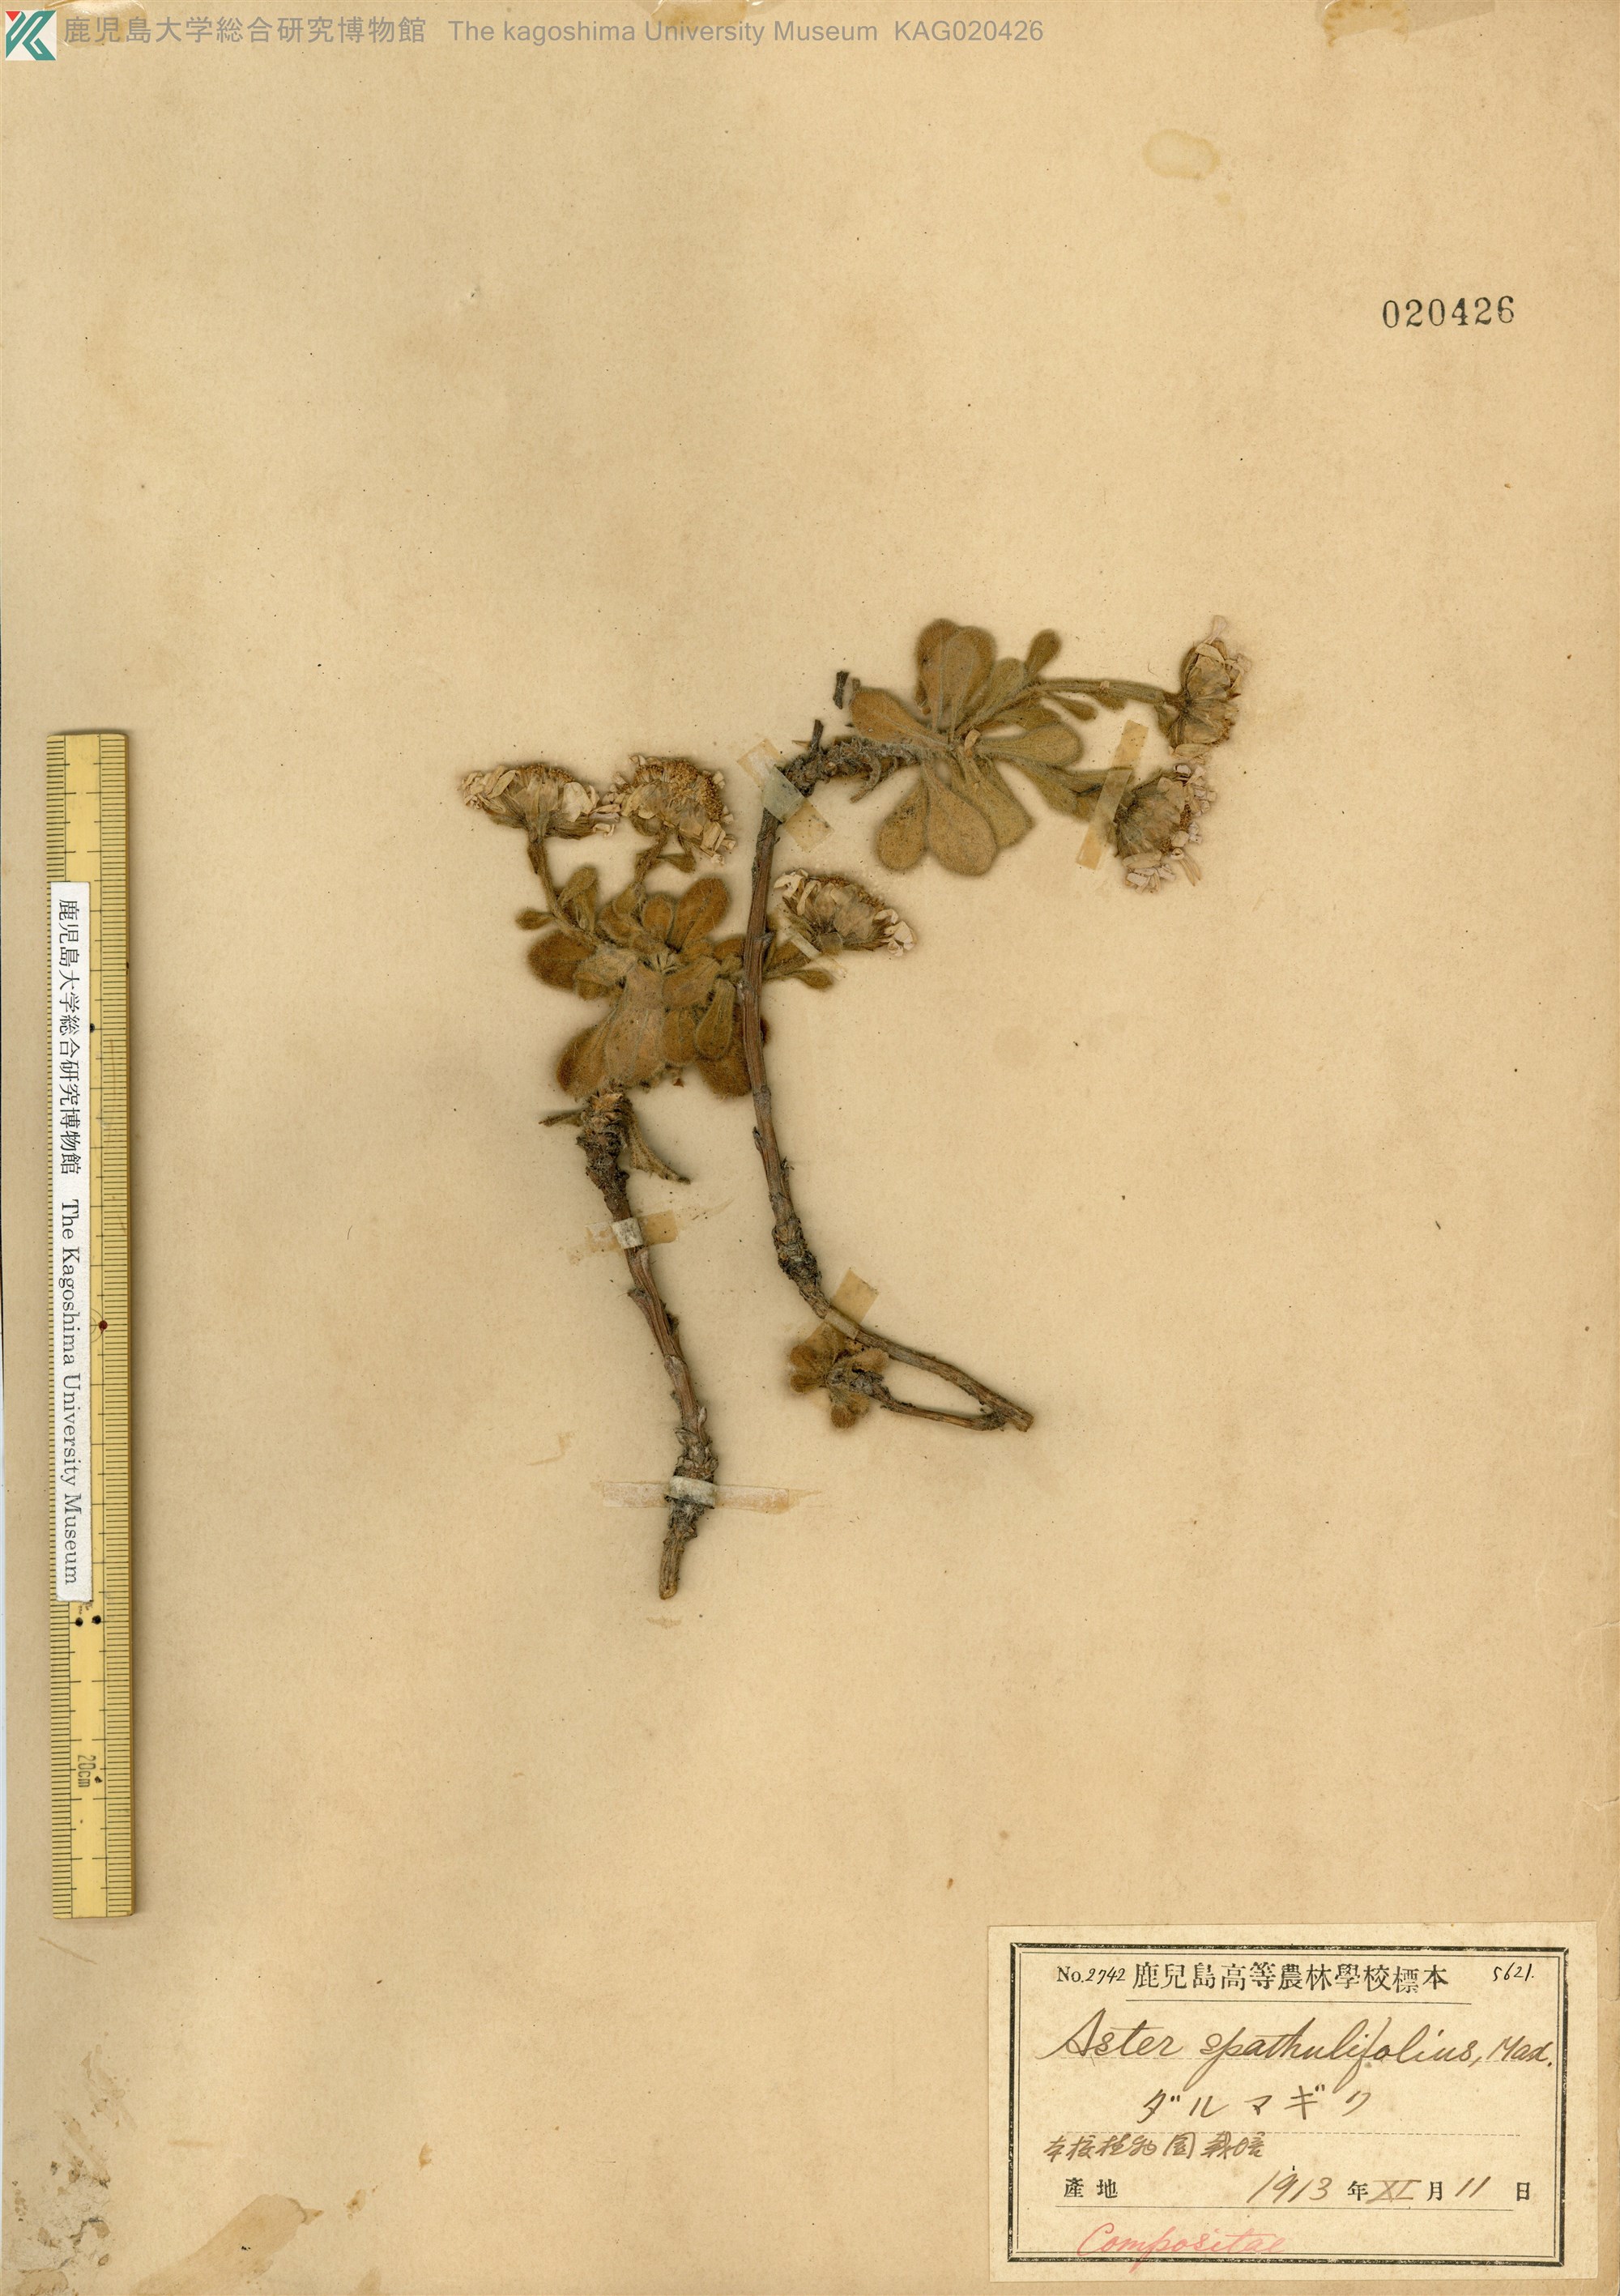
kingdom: Plantae
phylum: Tracheophyta
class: Magnoliopsida
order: Asterales
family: Asteraceae
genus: Aster
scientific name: Aster spathulifolius
